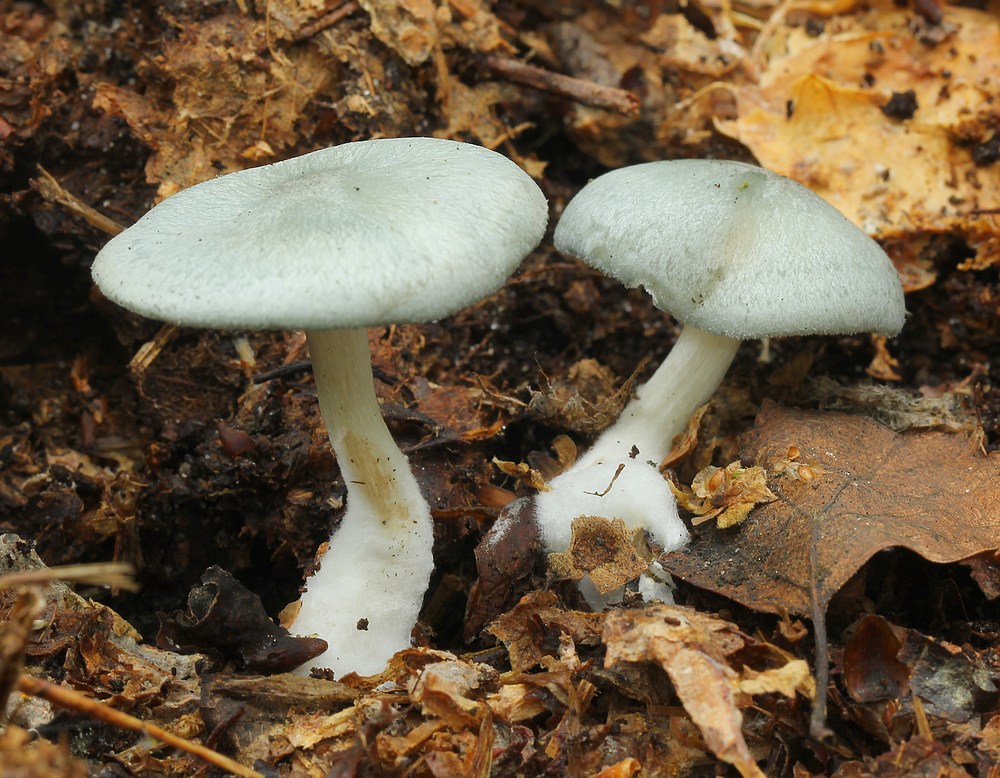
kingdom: Fungi
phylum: Basidiomycota
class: Agaricomycetes
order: Agaricales
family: Tricholomataceae
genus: Clitocybe
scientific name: Clitocybe odora
